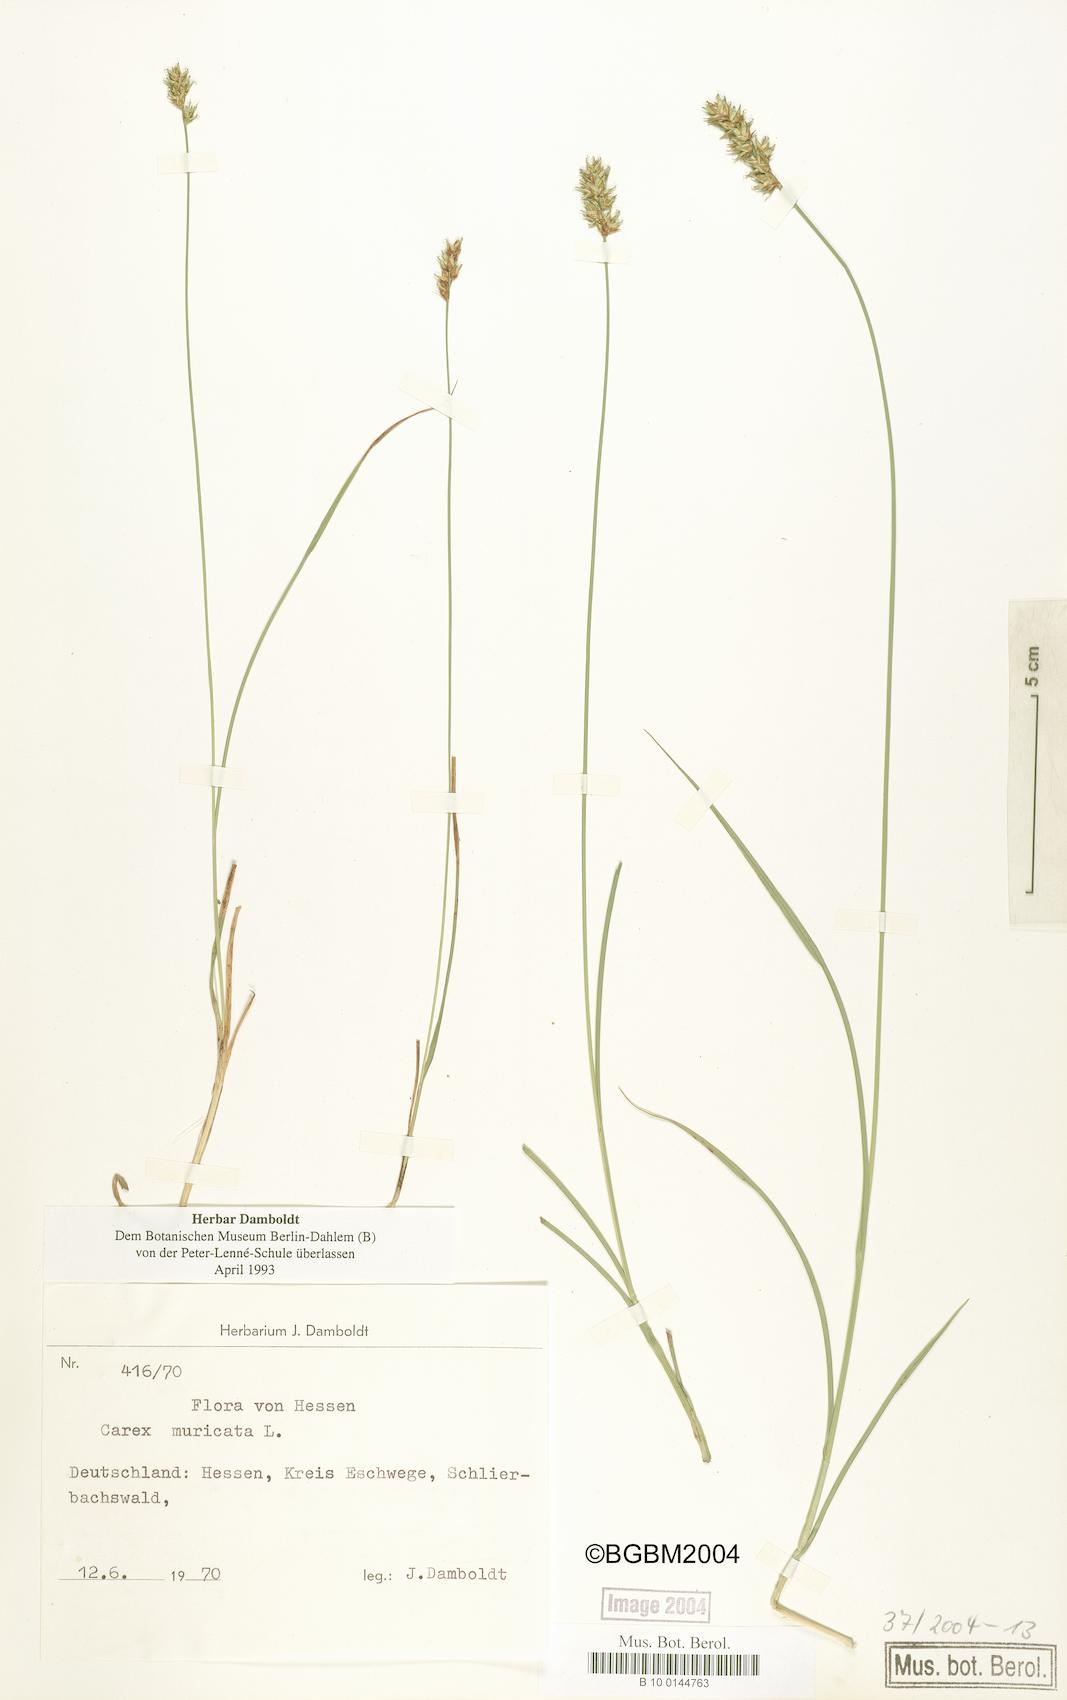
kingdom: Plantae
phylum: Tracheophyta
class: Liliopsida
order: Poales
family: Cyperaceae
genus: Carex
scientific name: Carex spicata
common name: Spiked sedge
